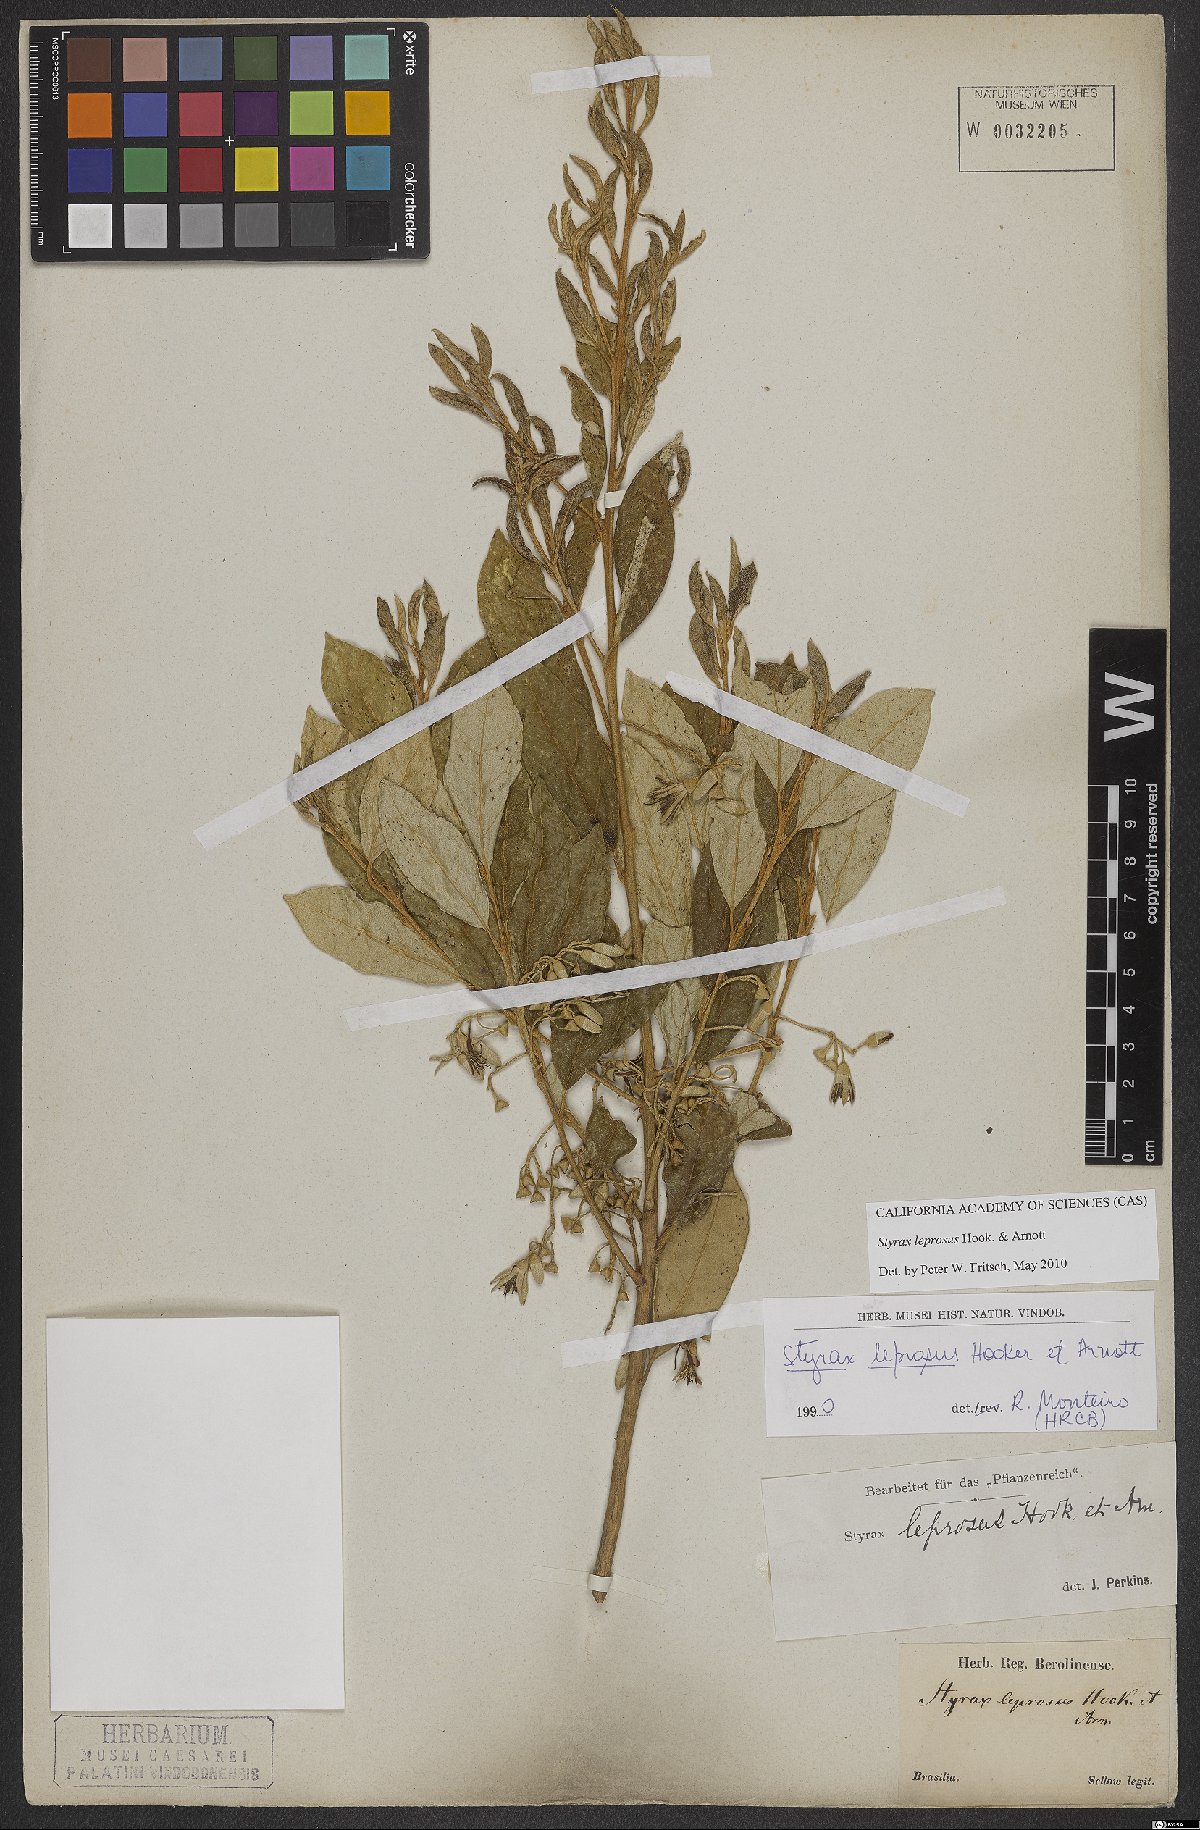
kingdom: Plantae
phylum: Tracheophyta
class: Magnoliopsida
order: Ericales
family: Styracaceae
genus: Styrax
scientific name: Styrax leprosus
